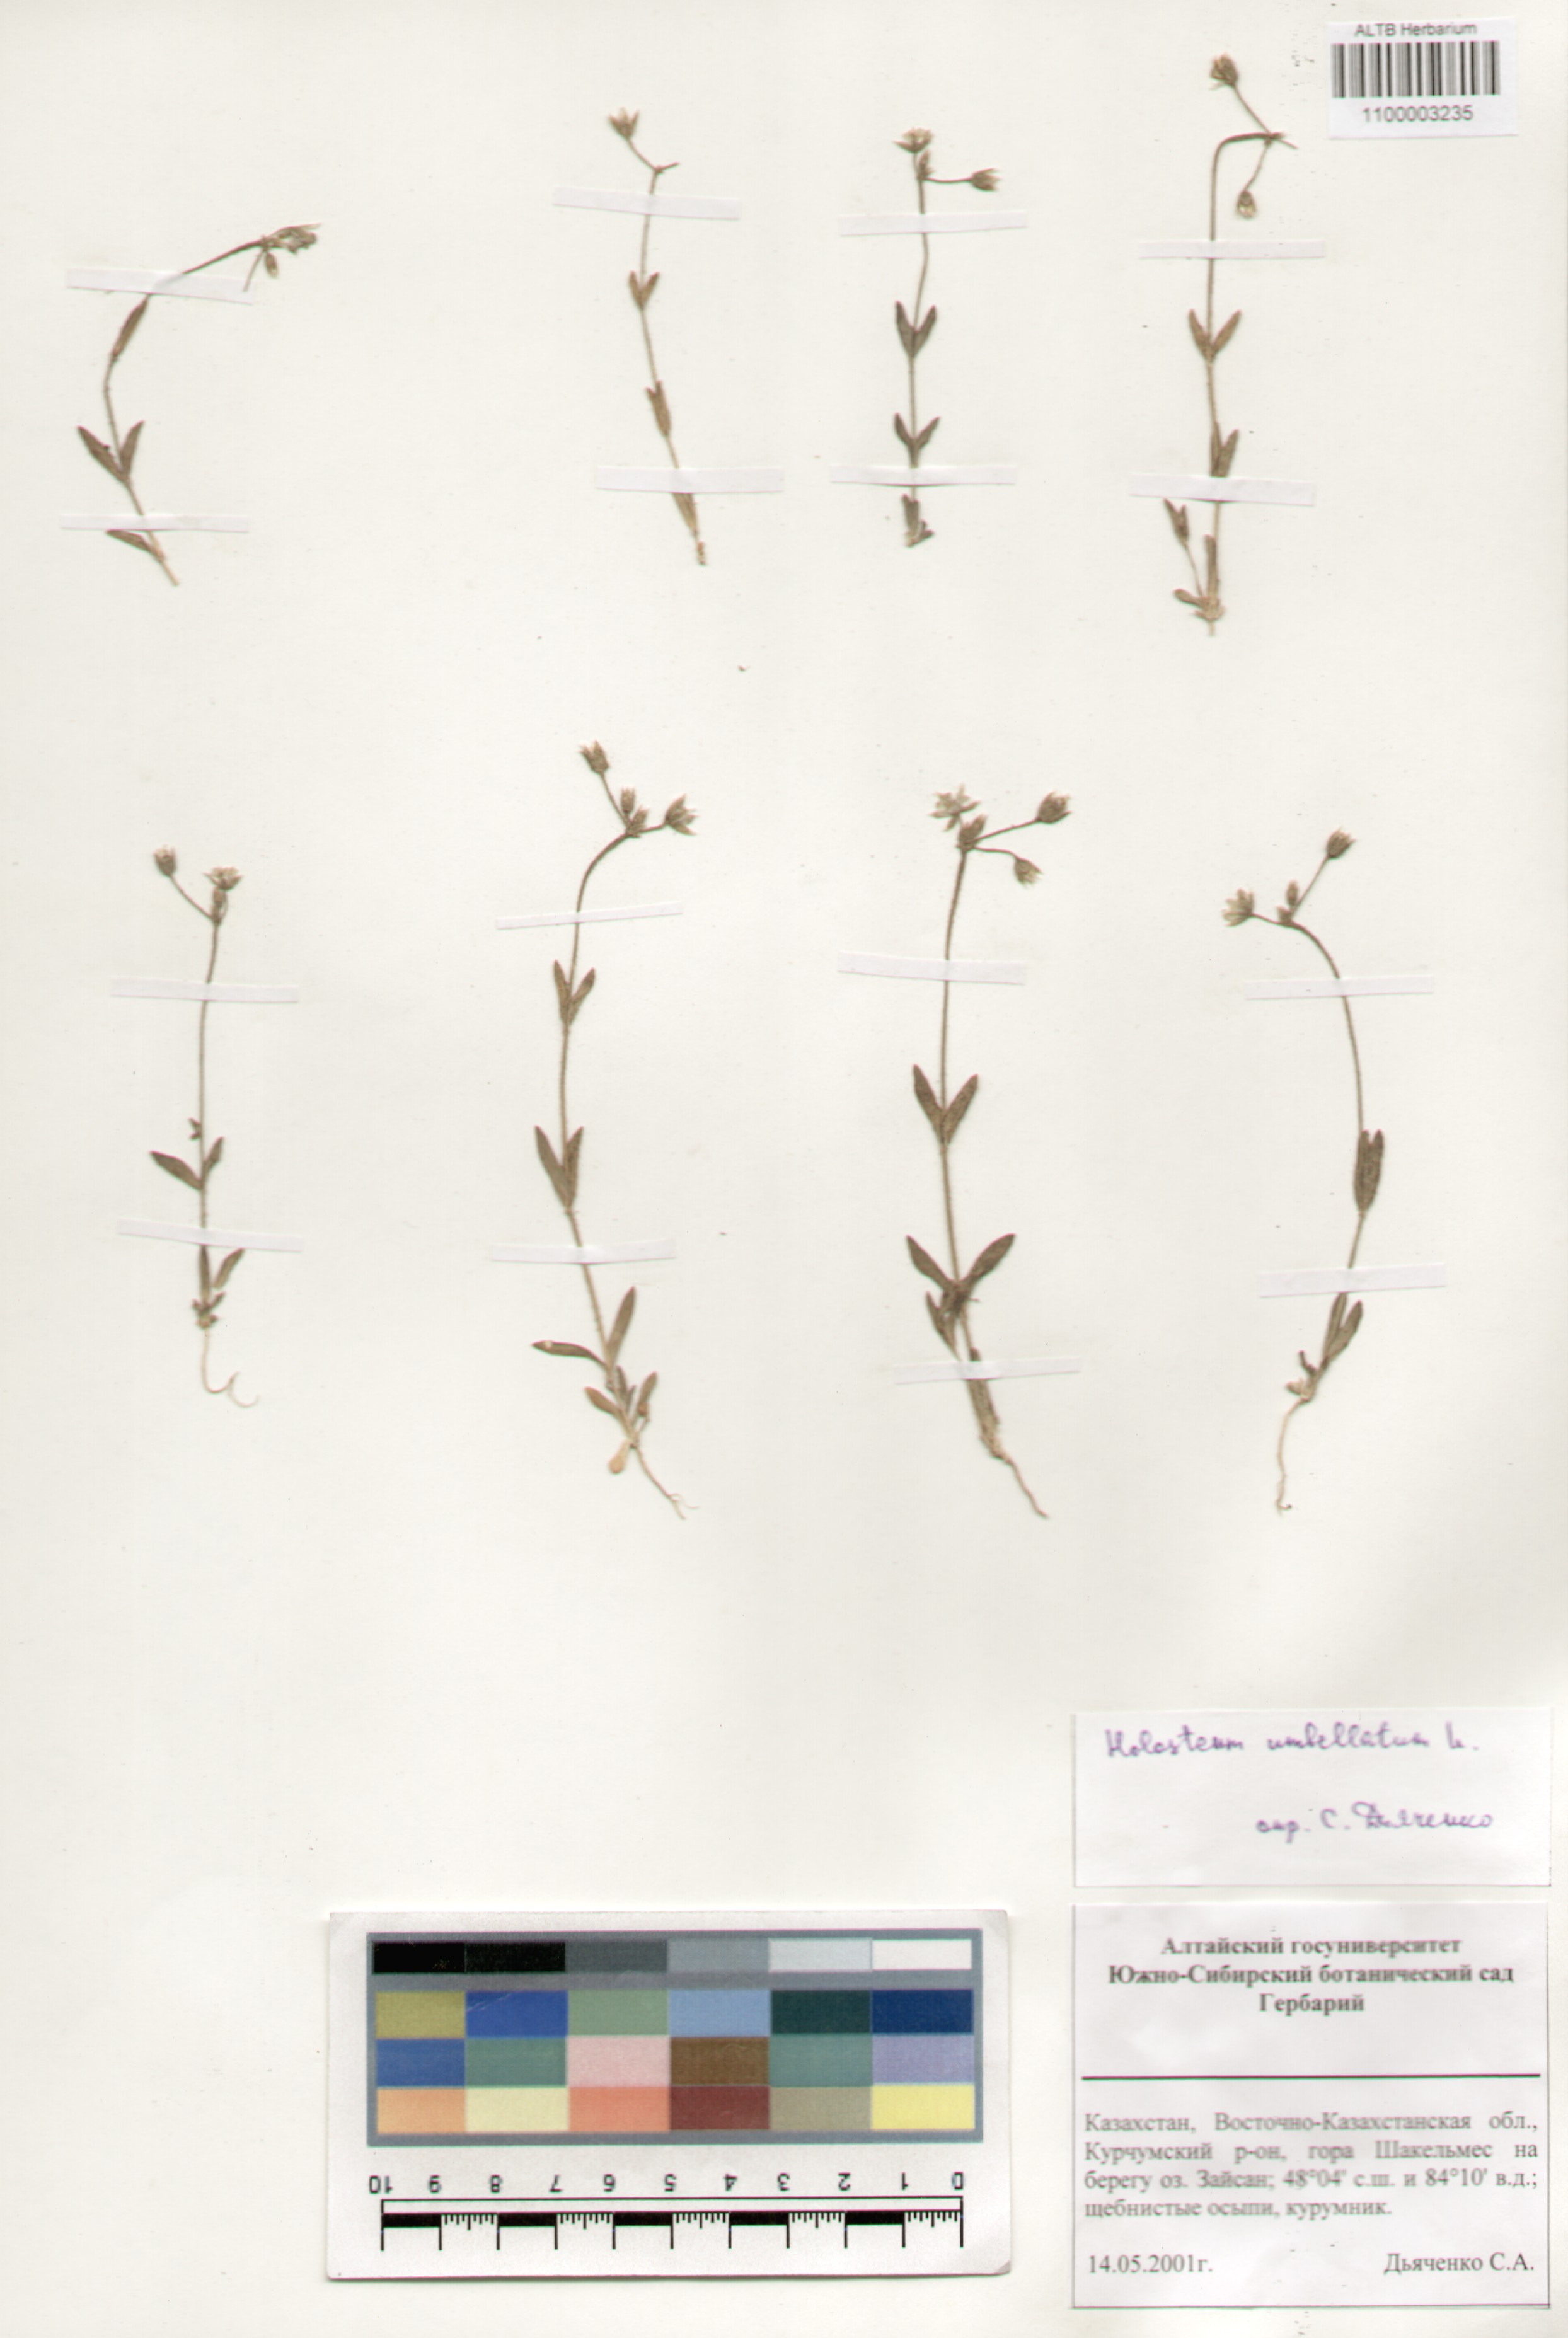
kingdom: Plantae
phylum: Tracheophyta
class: Magnoliopsida
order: Caryophyllales
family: Caryophyllaceae
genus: Holosteum
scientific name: Holosteum umbellatum
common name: Jagged chickweed
